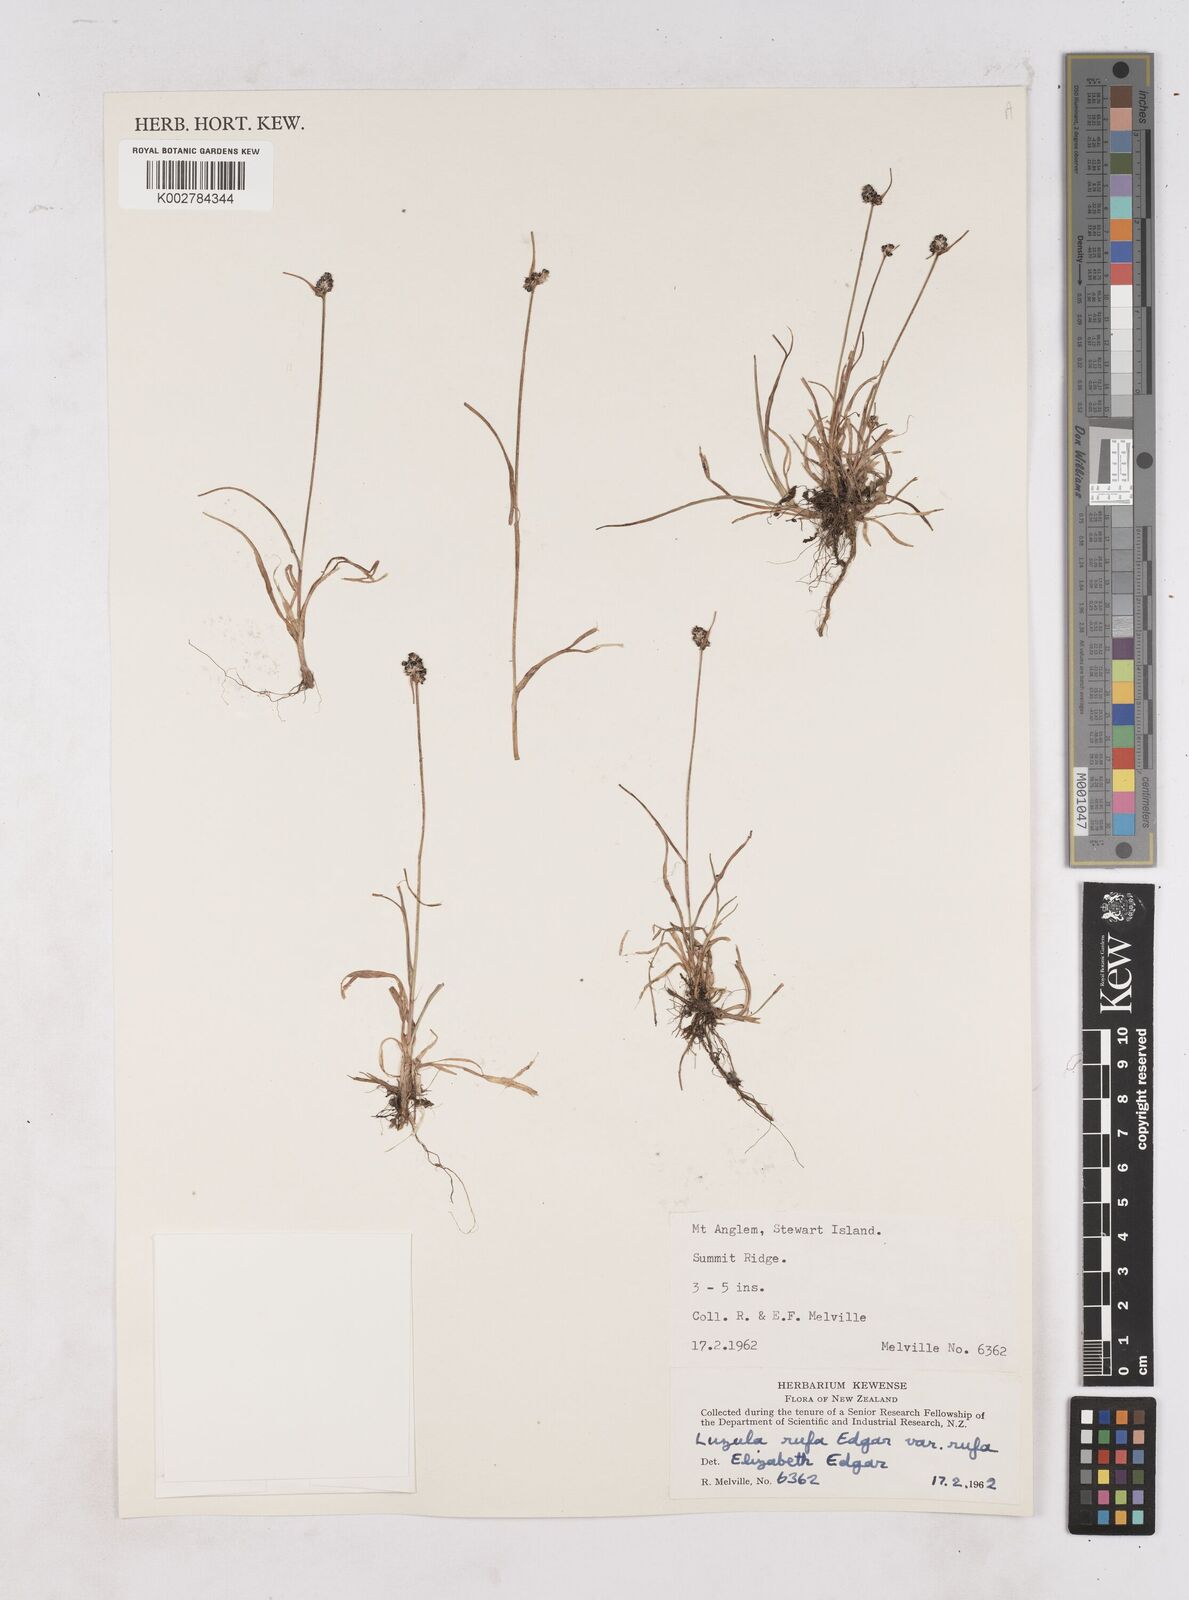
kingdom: Plantae
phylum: Tracheophyta
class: Liliopsida
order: Poales
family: Juncaceae
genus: Luzula
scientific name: Luzula rufa
